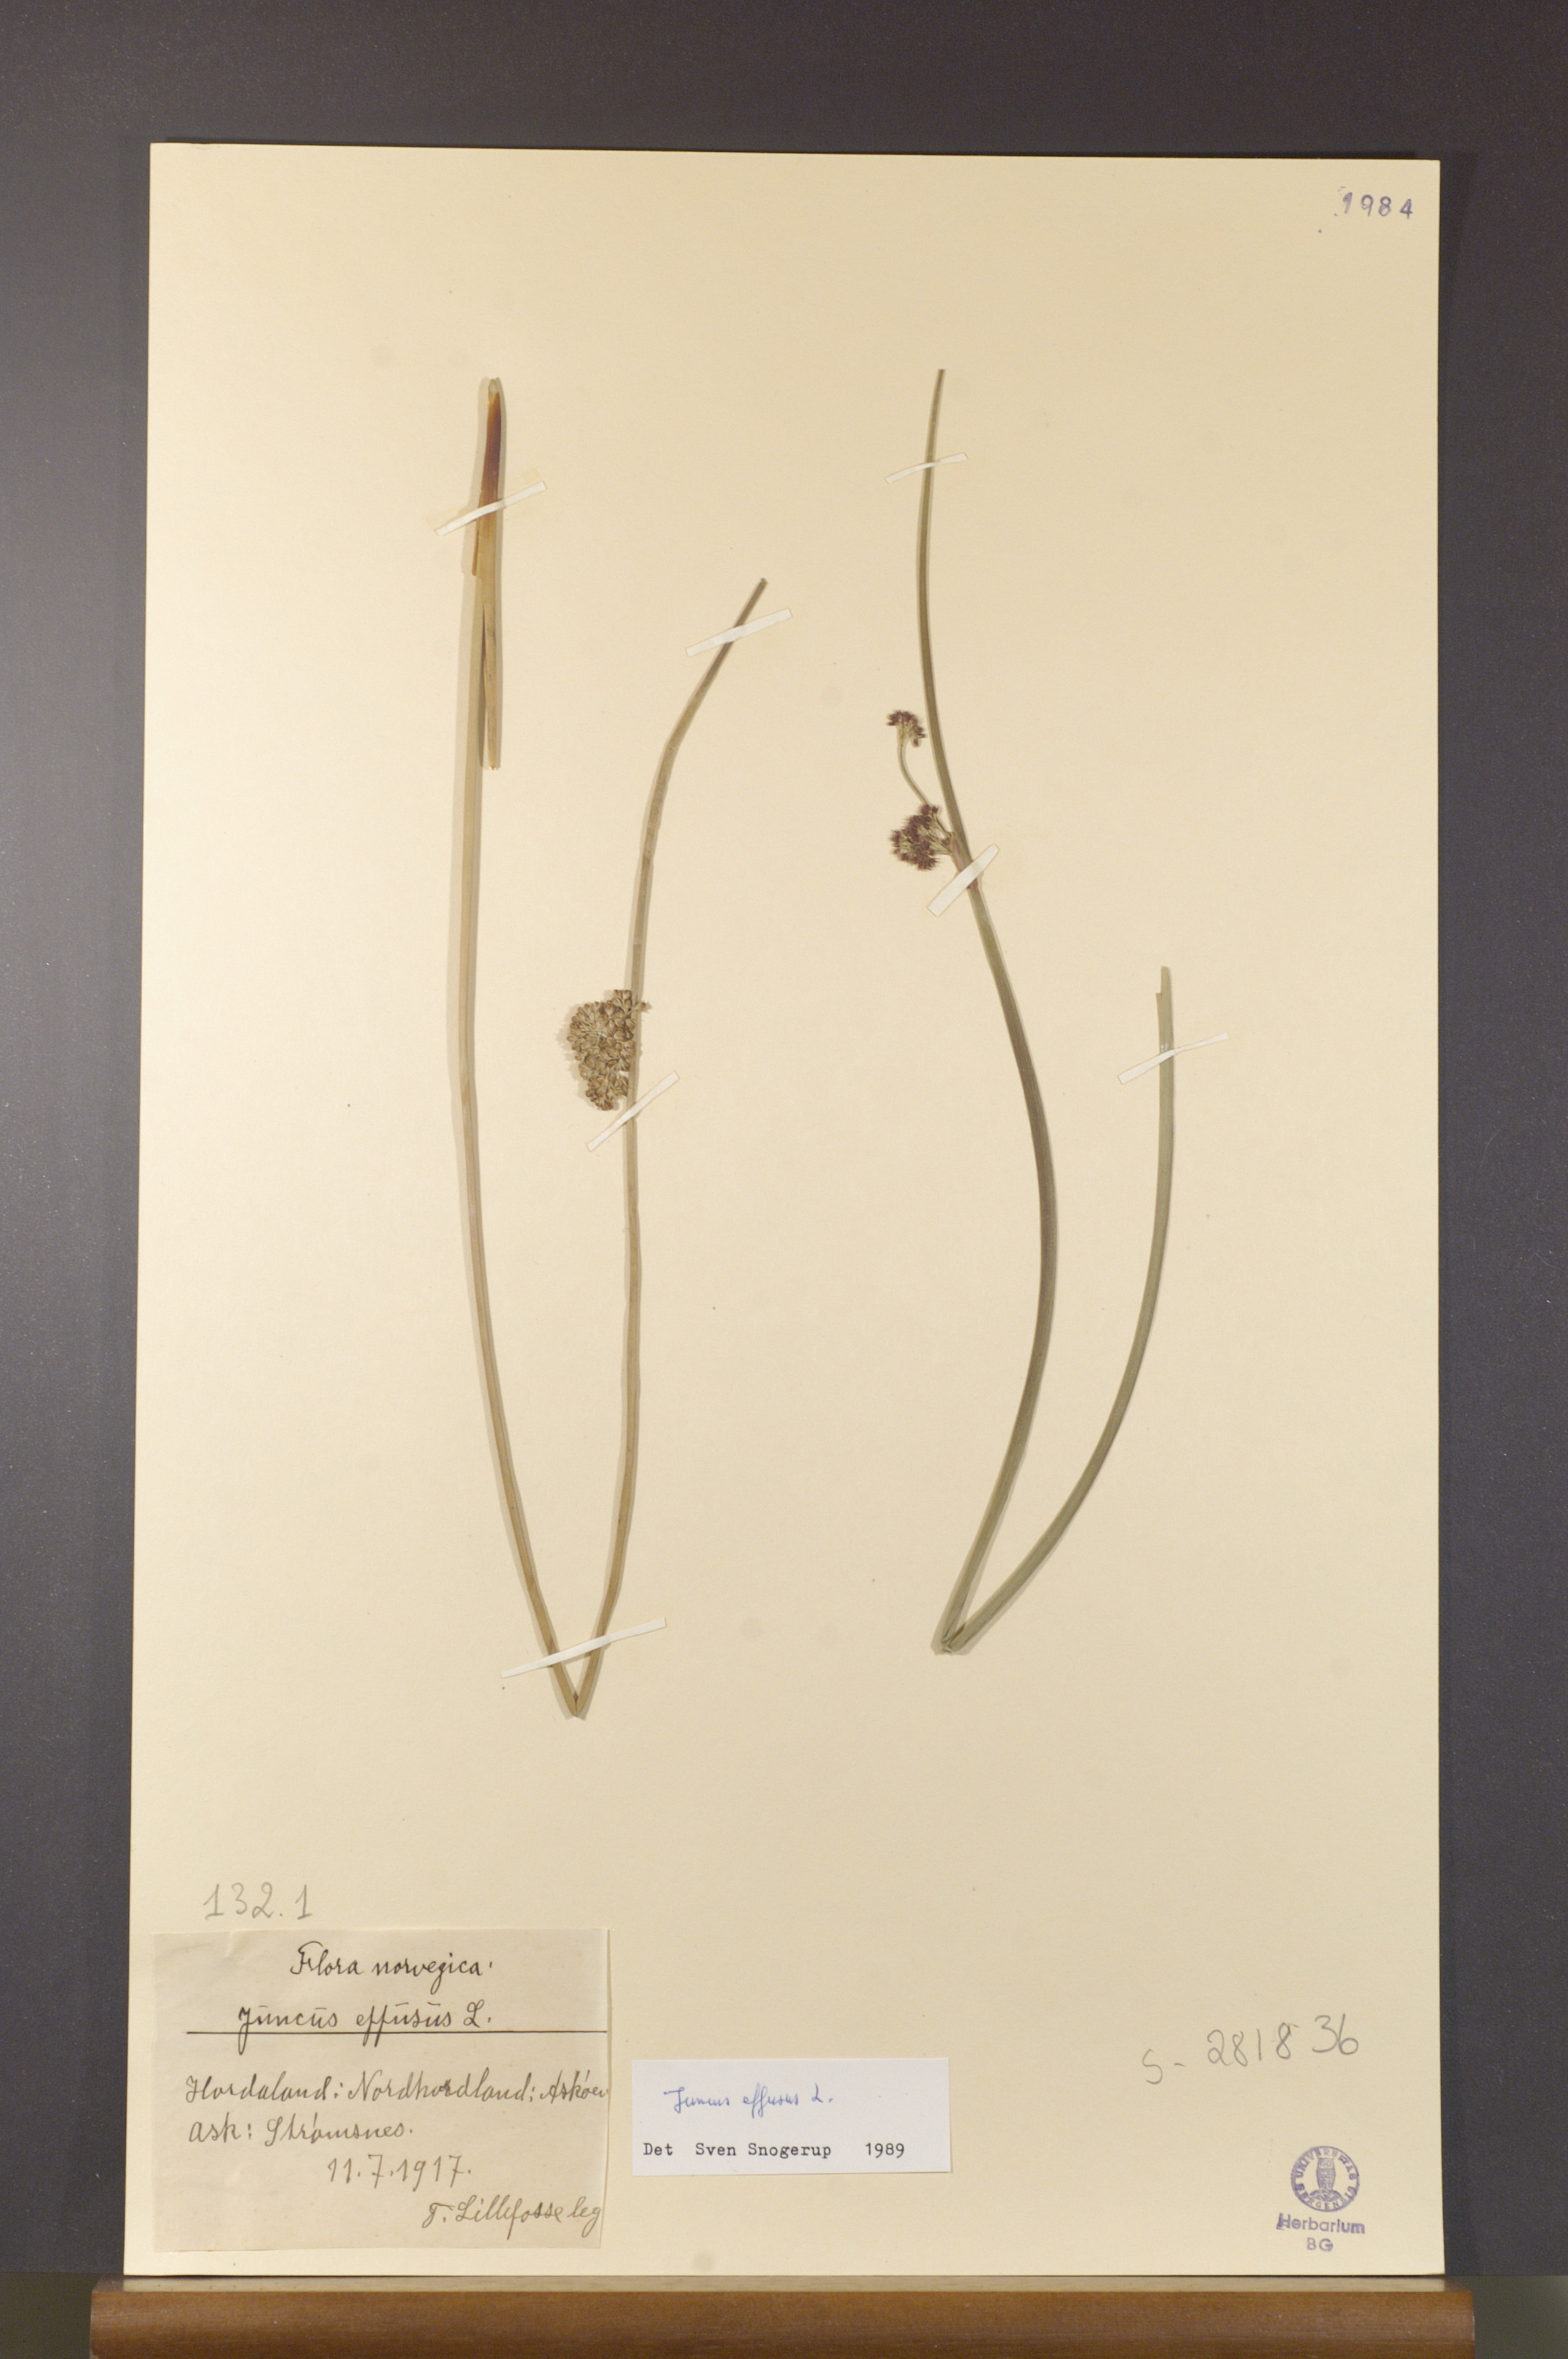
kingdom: Plantae
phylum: Tracheophyta
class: Liliopsida
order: Poales
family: Juncaceae
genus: Juncus
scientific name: Juncus effusus
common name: Soft rush
